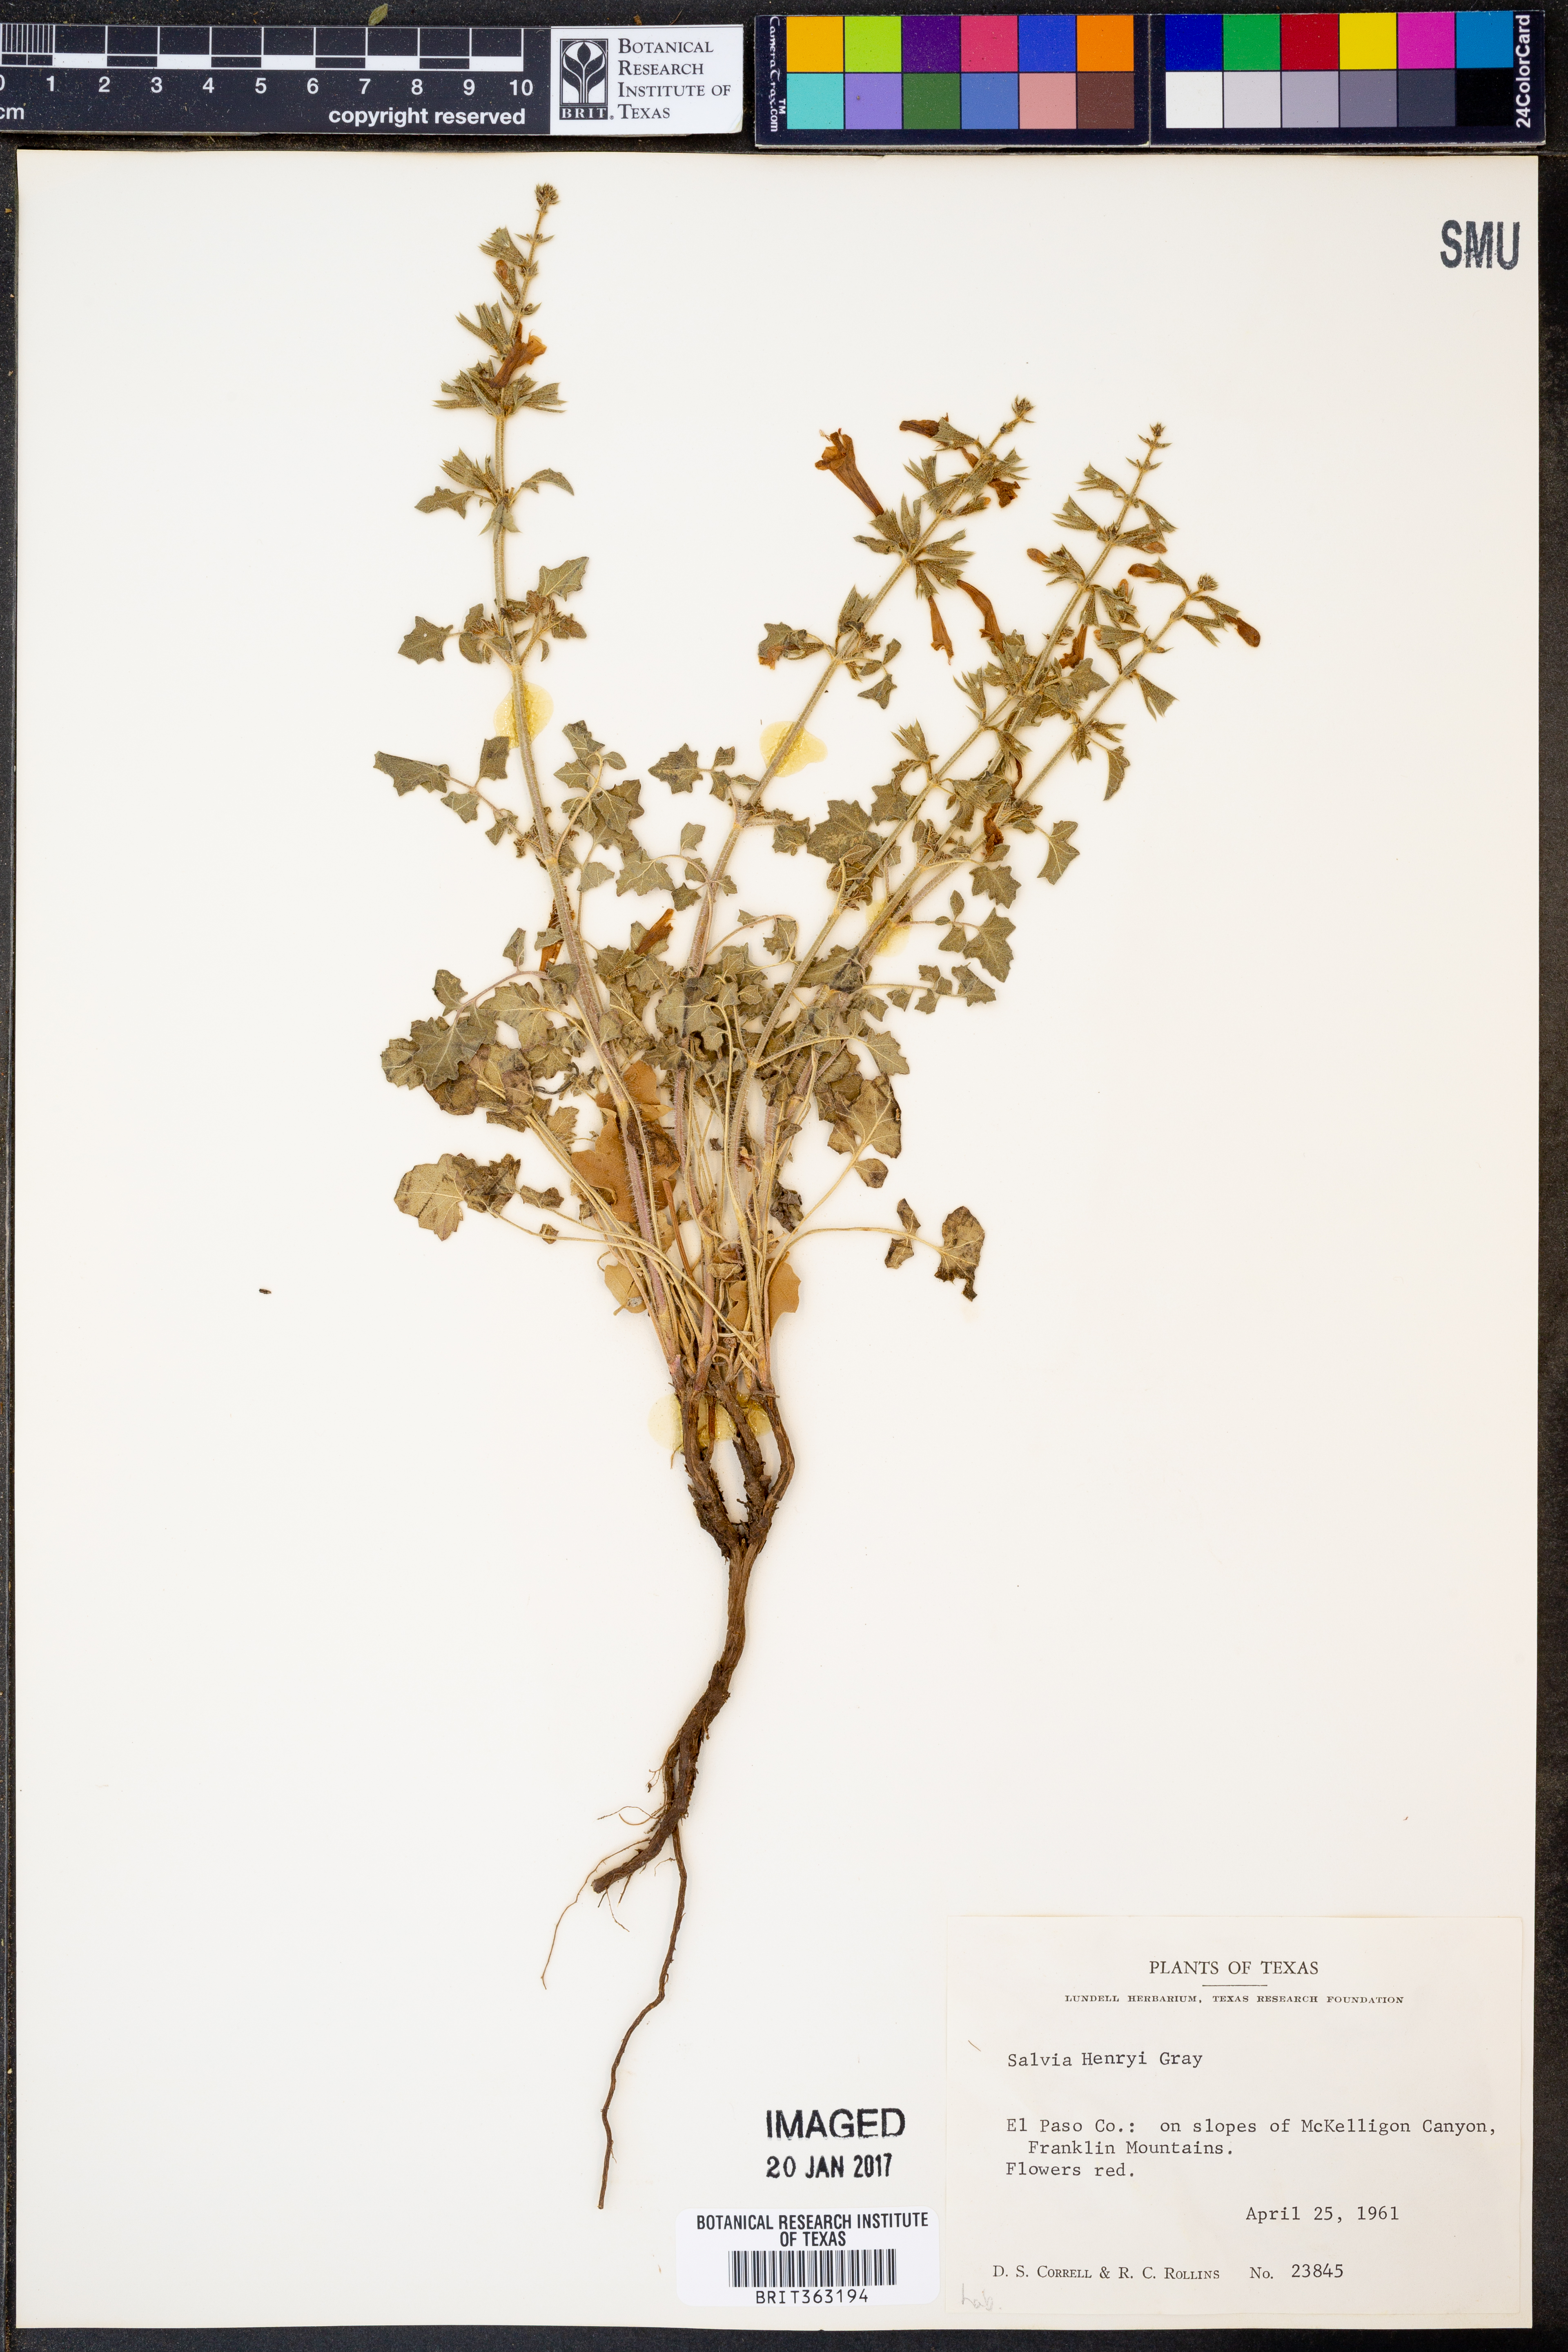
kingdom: Plantae
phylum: Tracheophyta
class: Magnoliopsida
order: Lamiales
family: Lamiaceae
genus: Salvia
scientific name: Salvia henryi
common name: Henry's sage
